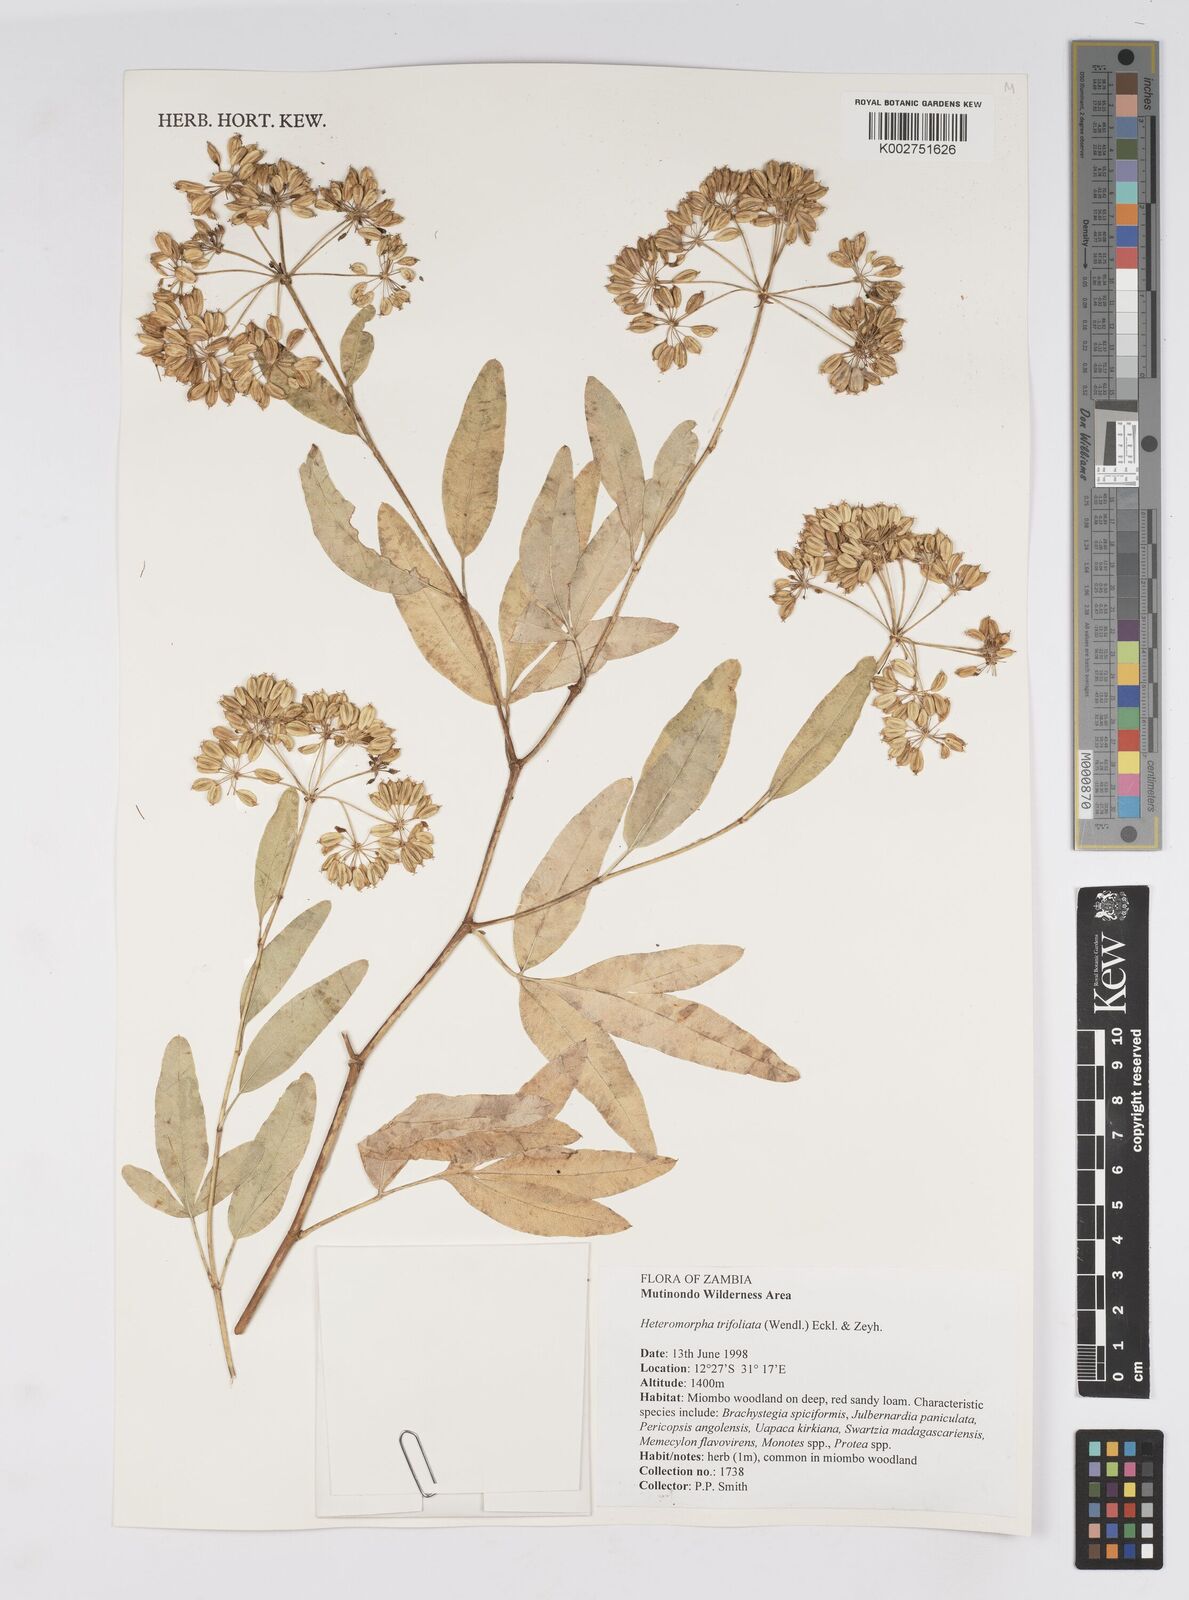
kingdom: Plantae
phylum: Tracheophyta
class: Magnoliopsida
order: Apiales
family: Apiaceae
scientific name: Apiaceae
